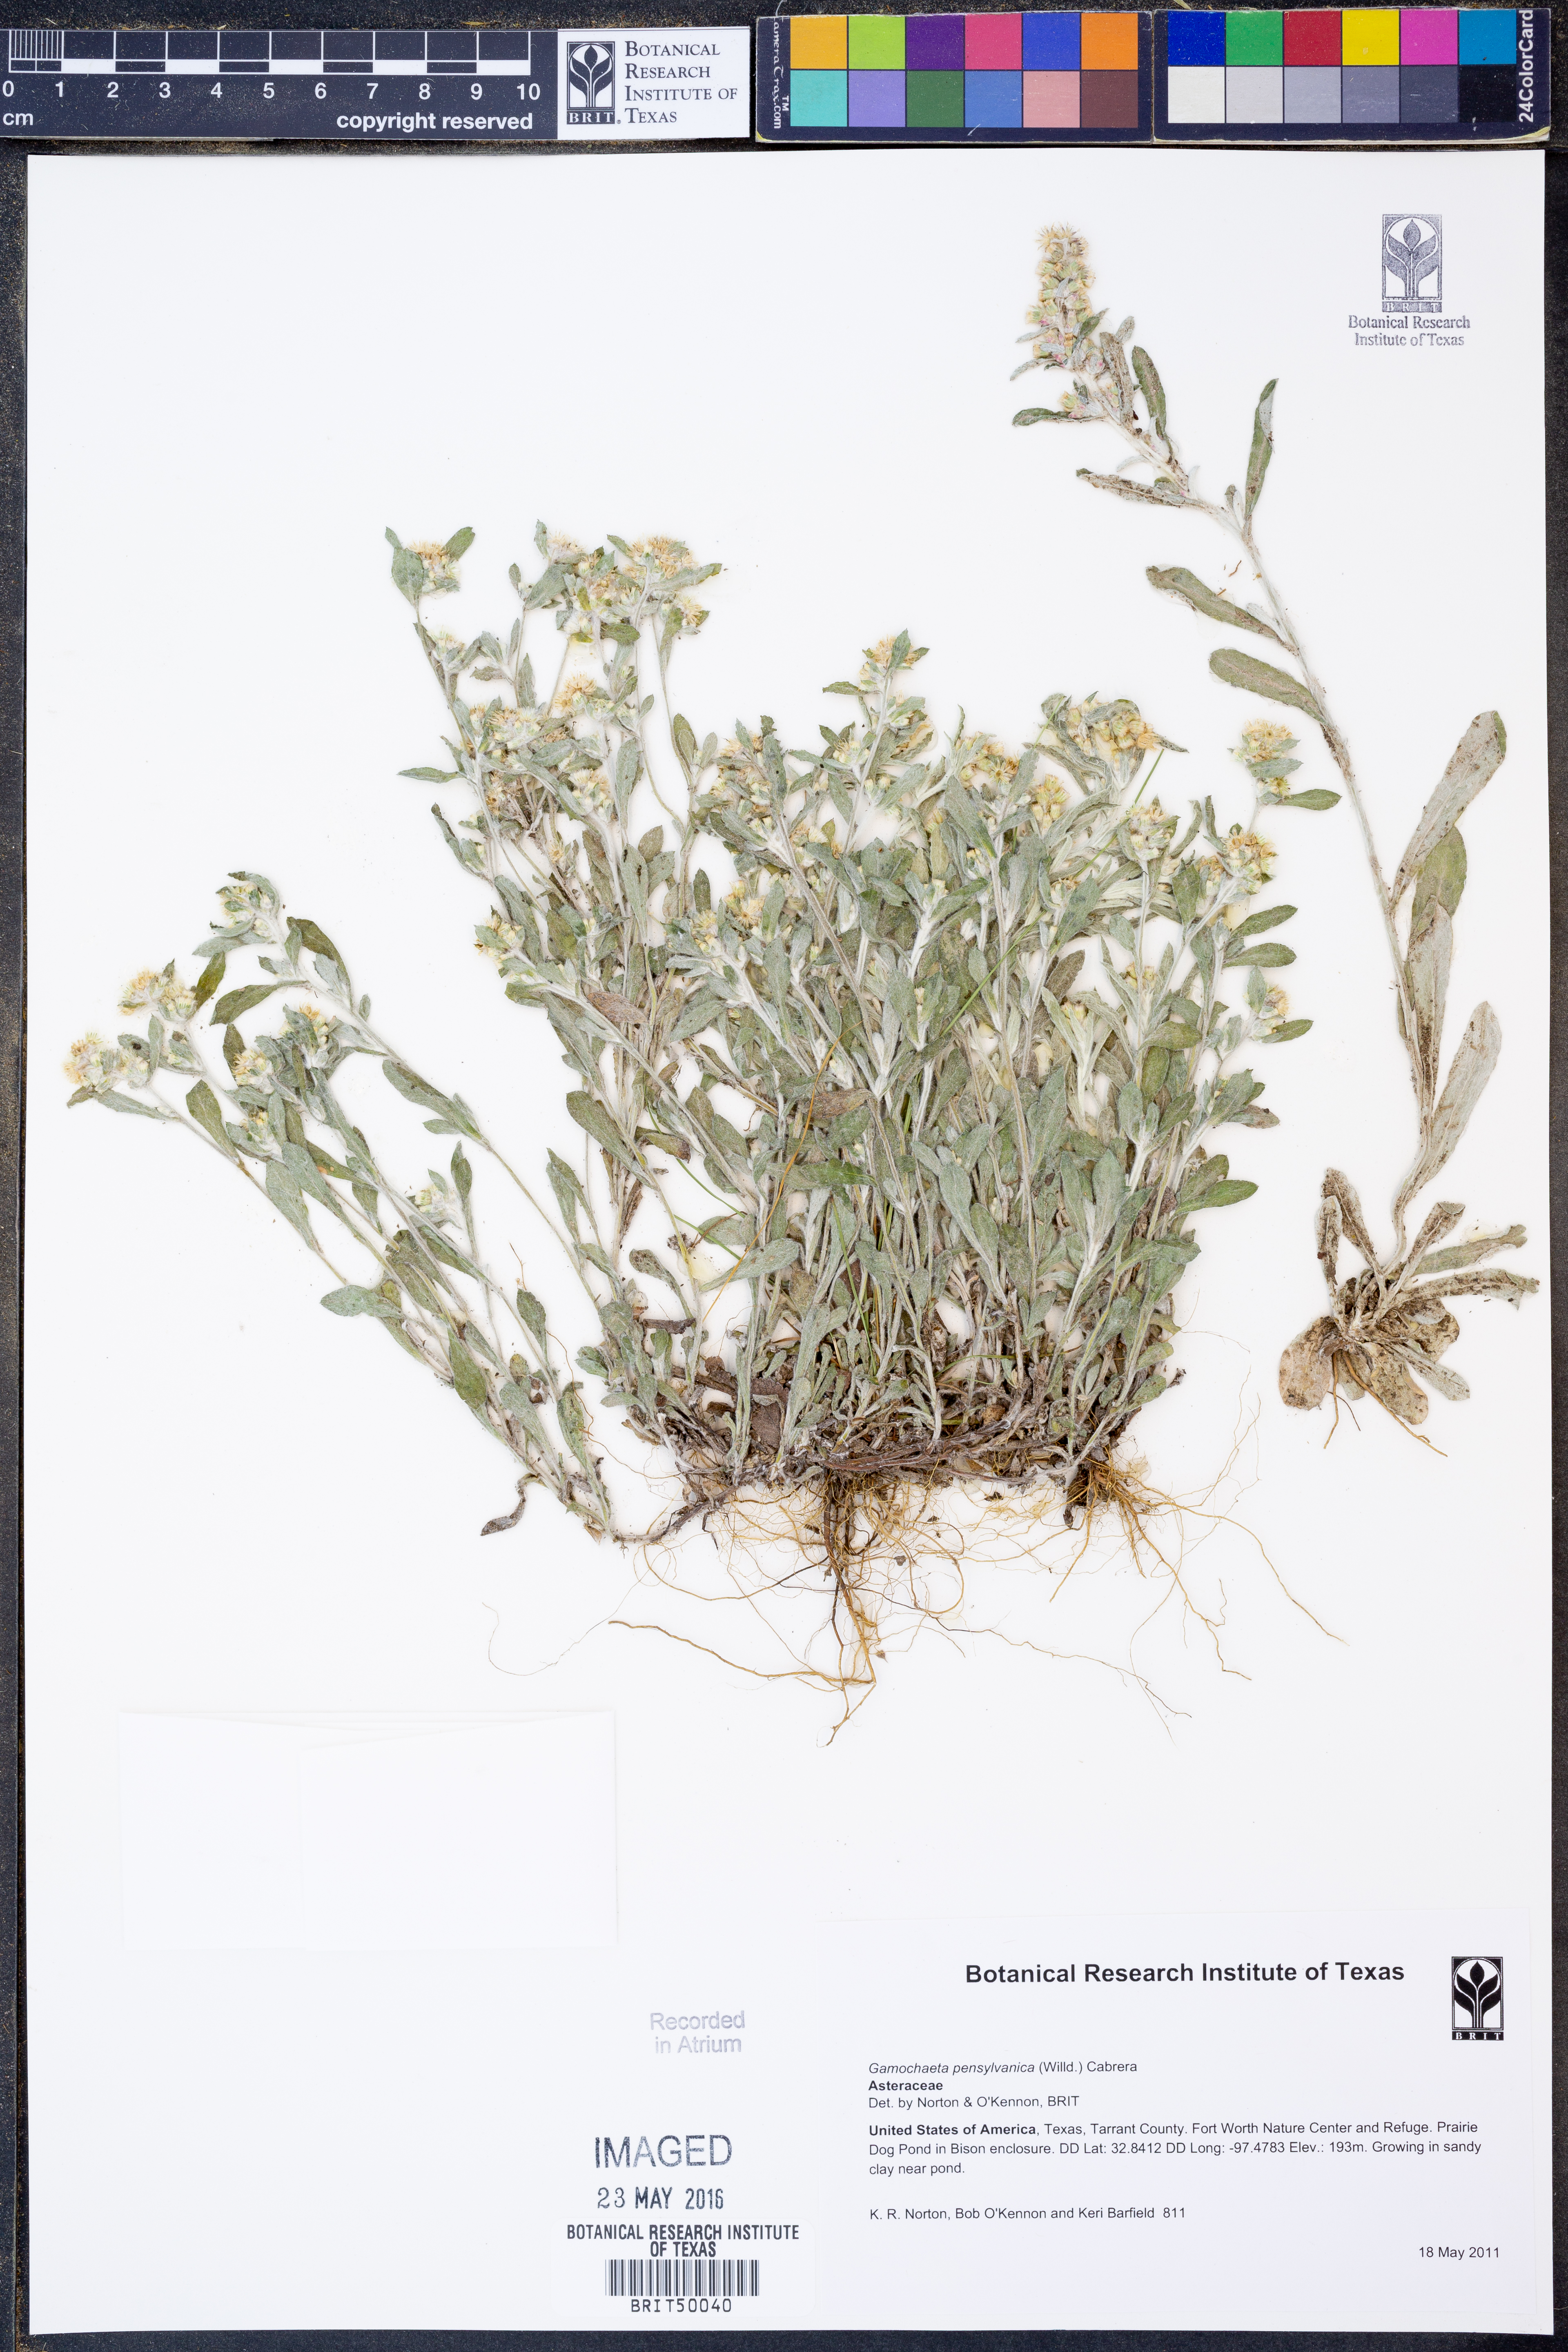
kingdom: Plantae
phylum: Tracheophyta
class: Magnoliopsida
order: Asterales
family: Asteraceae
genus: Gamochaeta
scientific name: Gamochaeta pensylvanica
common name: Pennsylvania everlasting
